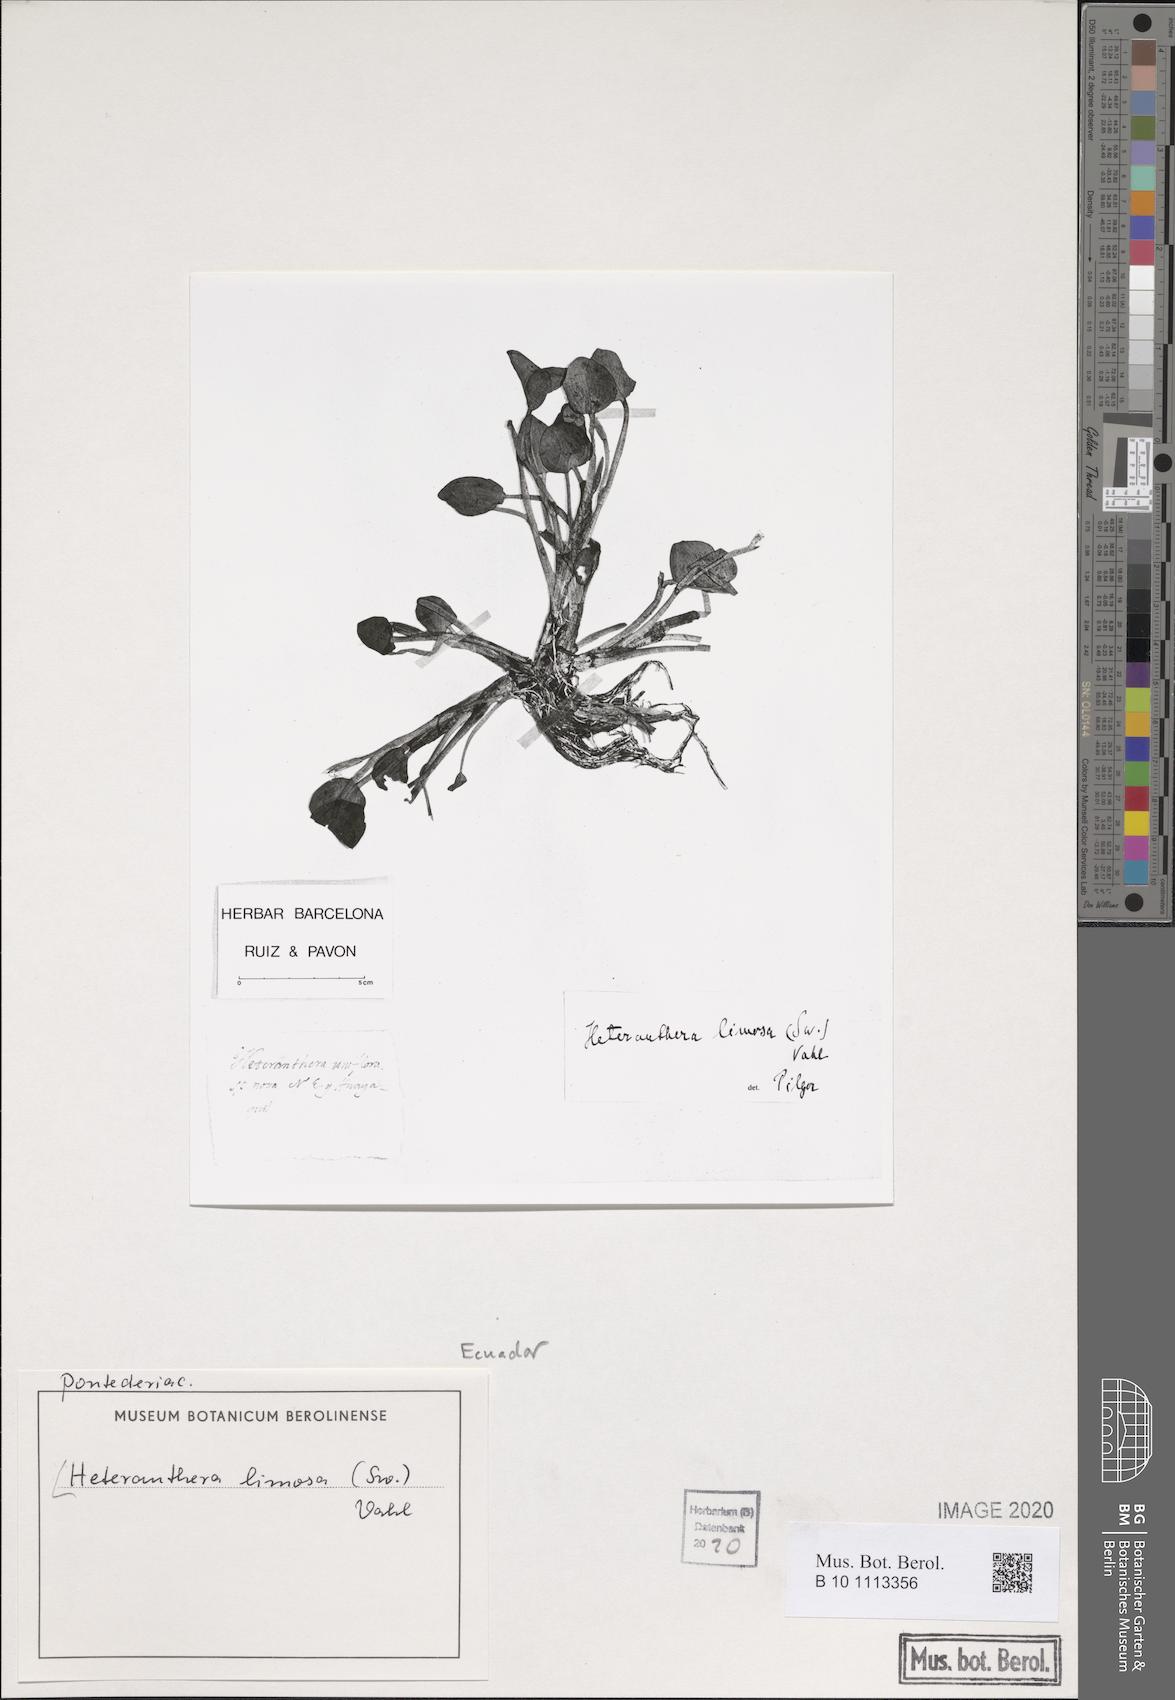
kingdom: Plantae
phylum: Tracheophyta
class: Liliopsida
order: Commelinales
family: Pontederiaceae
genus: Heteranthera
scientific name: Heteranthera limosa
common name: Blue mud-plantain
